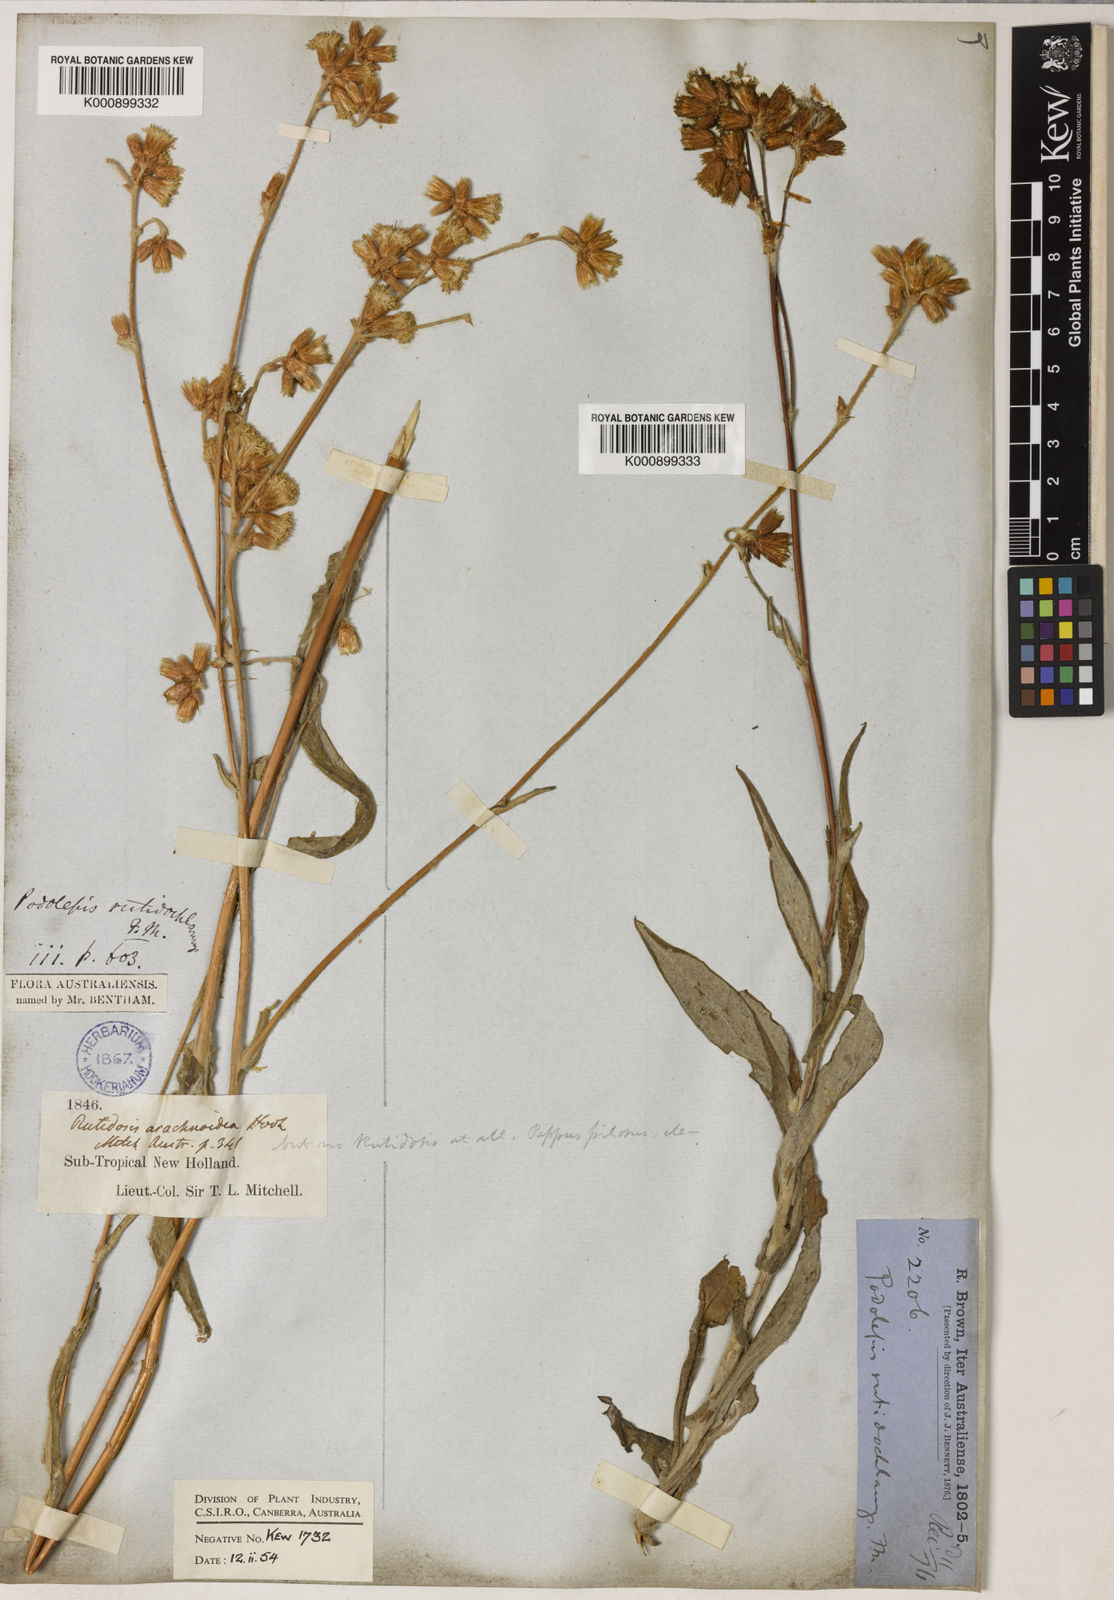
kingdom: Plantae
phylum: Tracheophyta
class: Magnoliopsida
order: Asterales
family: Asteraceae
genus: Podolepis
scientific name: Podolepis arachnoidea
